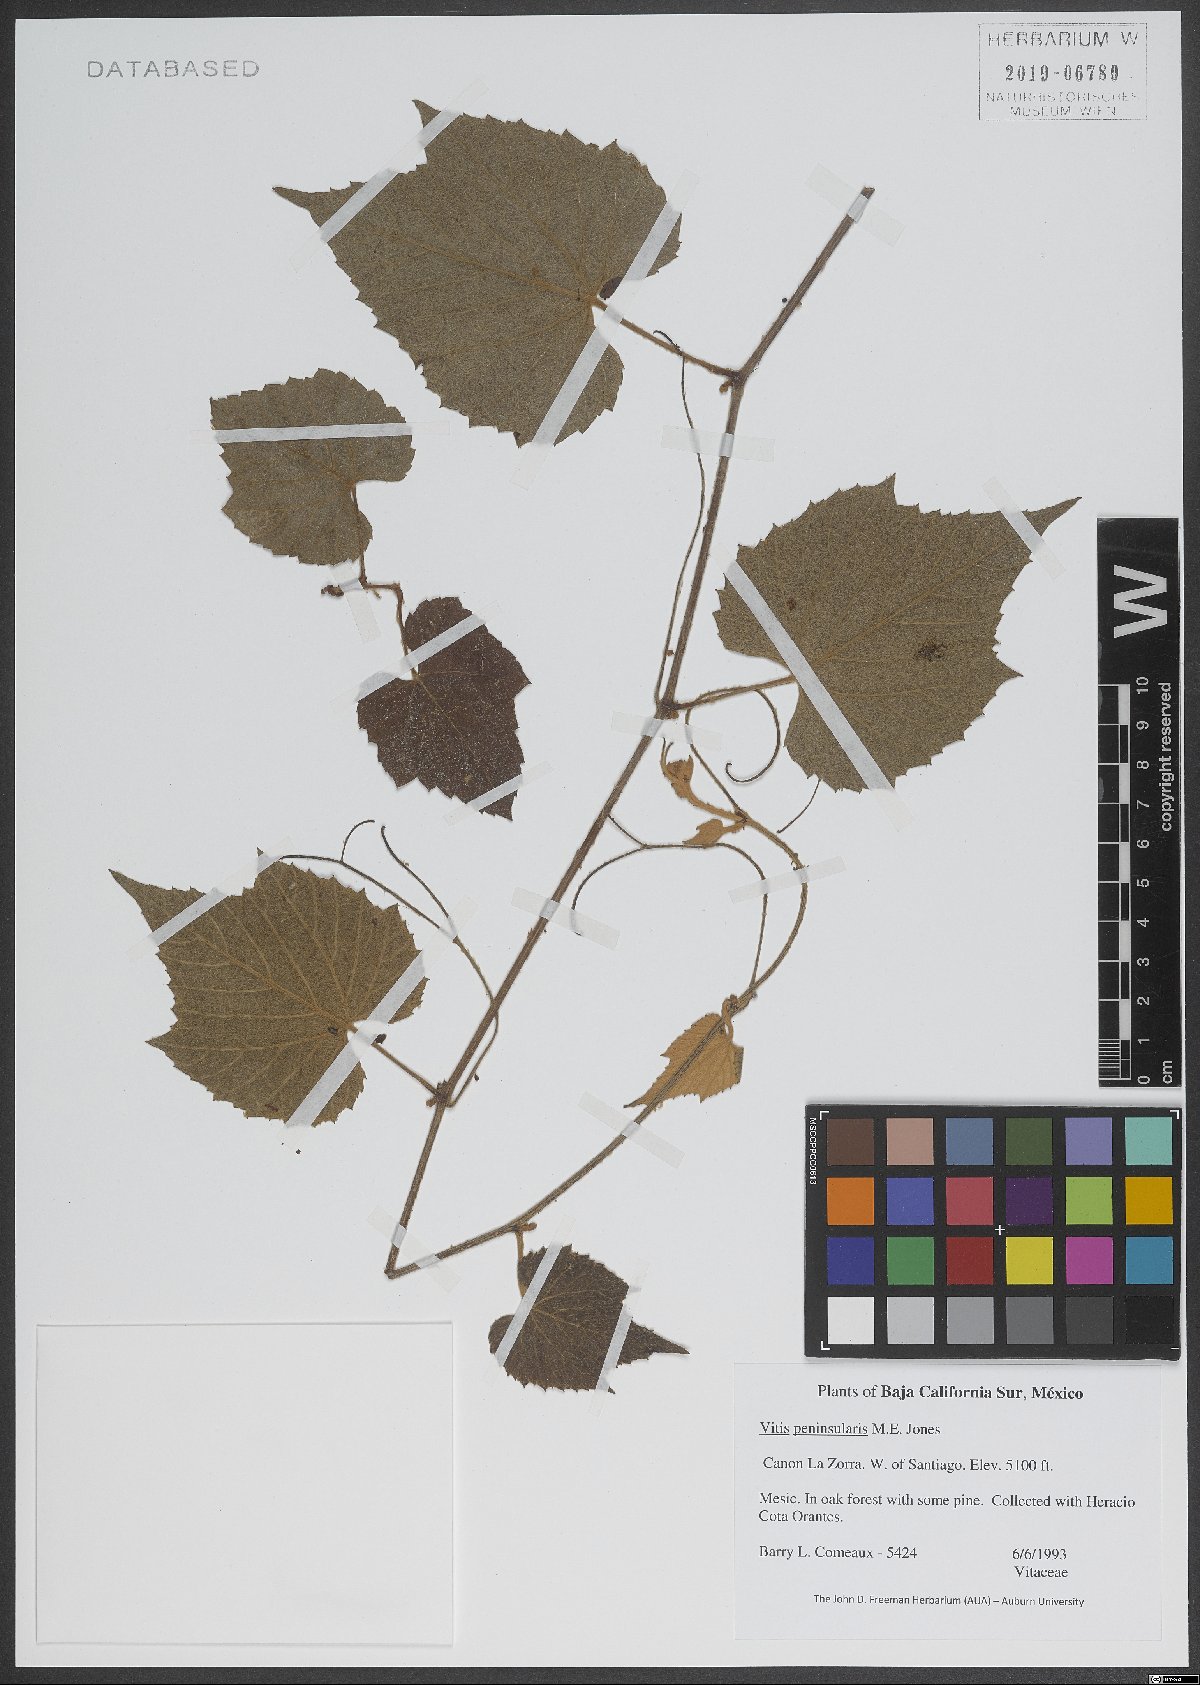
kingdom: Plantae
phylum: Tracheophyta
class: Magnoliopsida
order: Vitales
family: Vitaceae
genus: Vitis
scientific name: Vitis peninsularis
